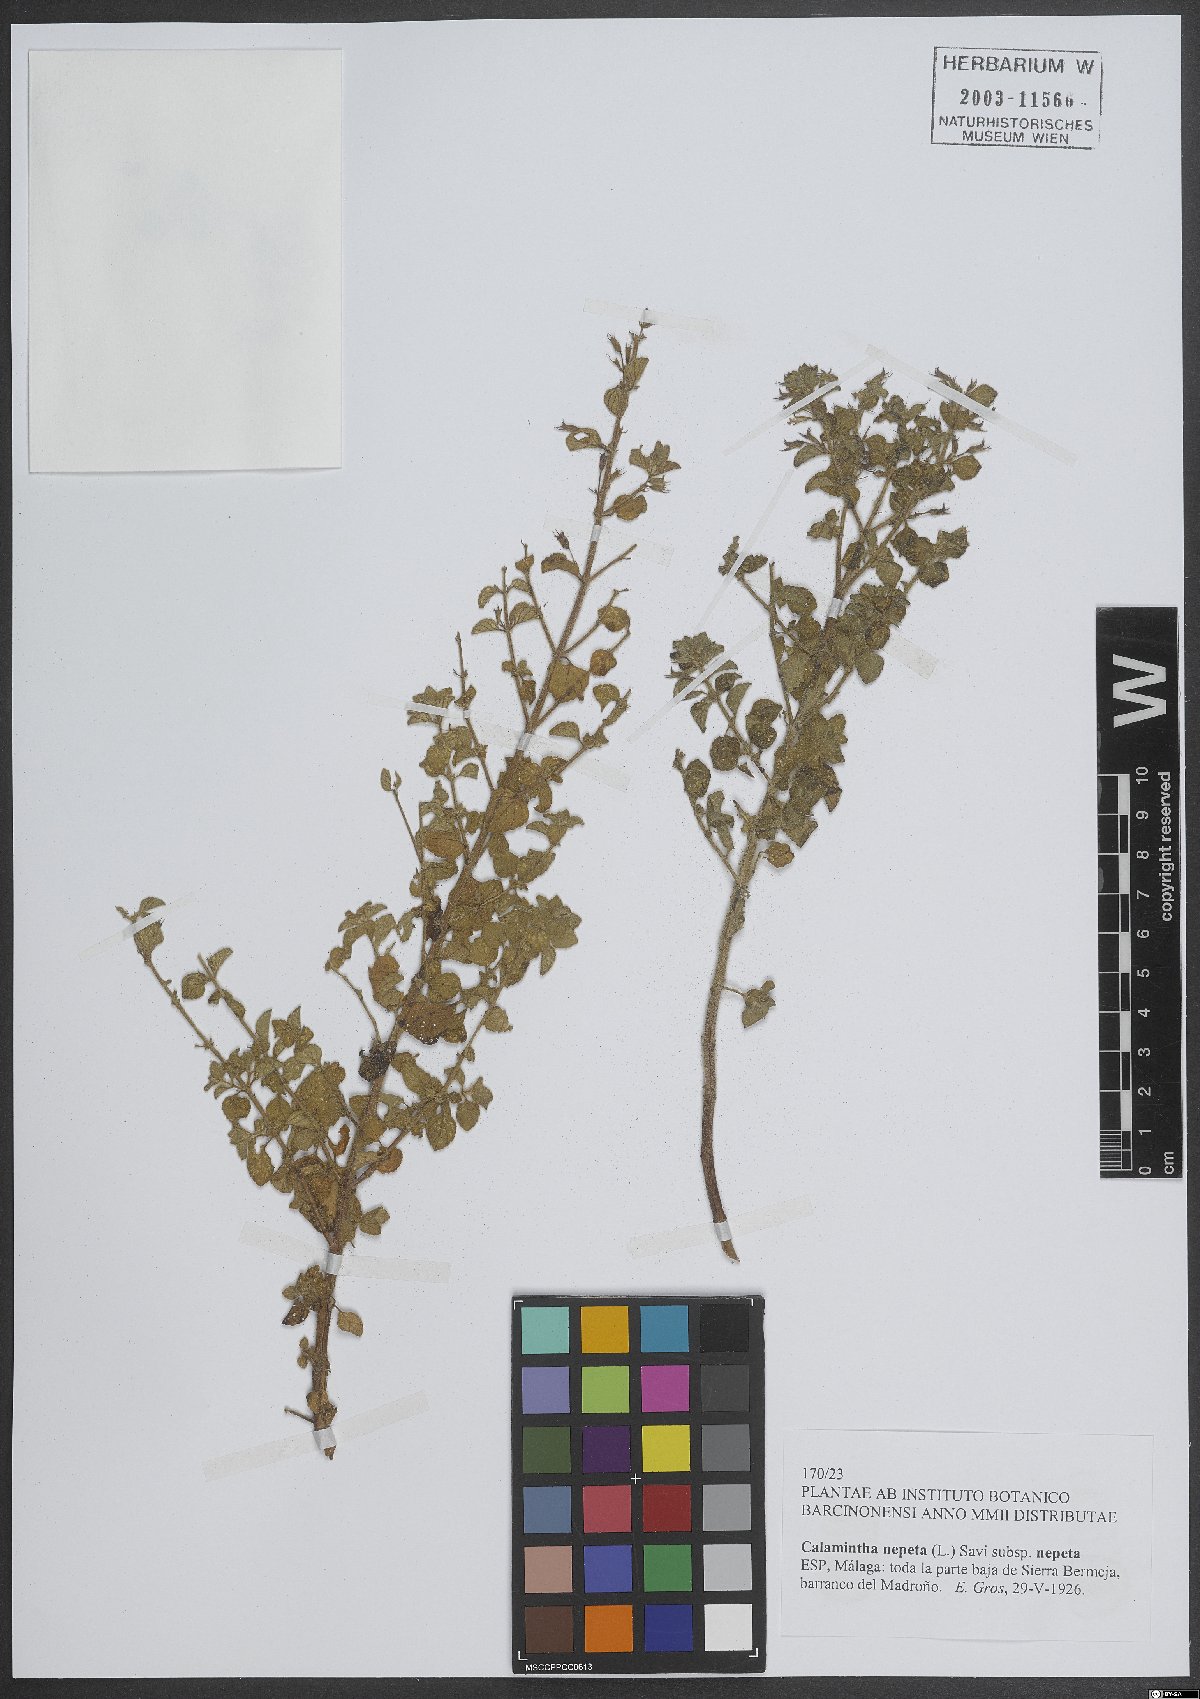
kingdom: Plantae
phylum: Tracheophyta
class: Magnoliopsida
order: Lamiales
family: Lamiaceae
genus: Clinopodium
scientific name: Clinopodium nepeta
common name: Lesser calamint
